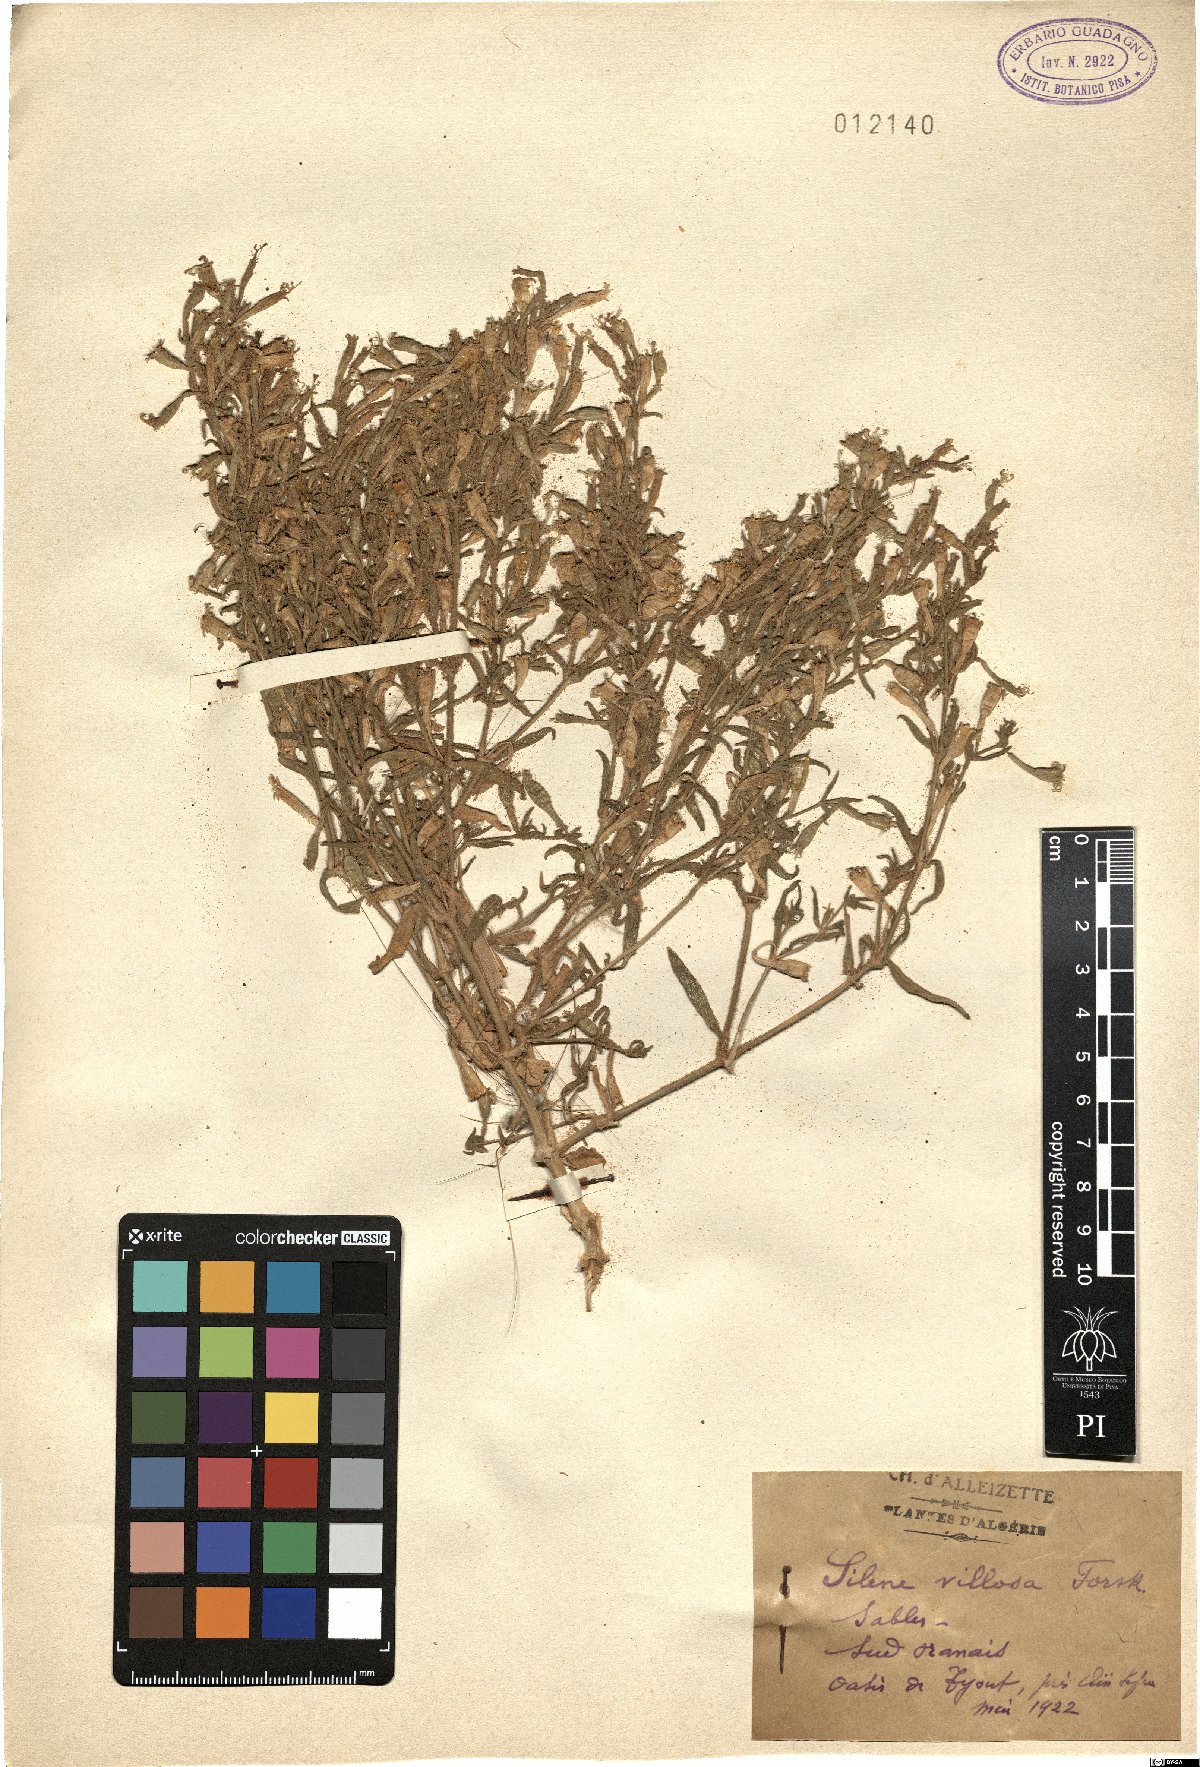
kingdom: Plantae
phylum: Tracheophyta
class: Magnoliopsida
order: Caryophyllales
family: Caryophyllaceae
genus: Silene
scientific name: Silene villosa
